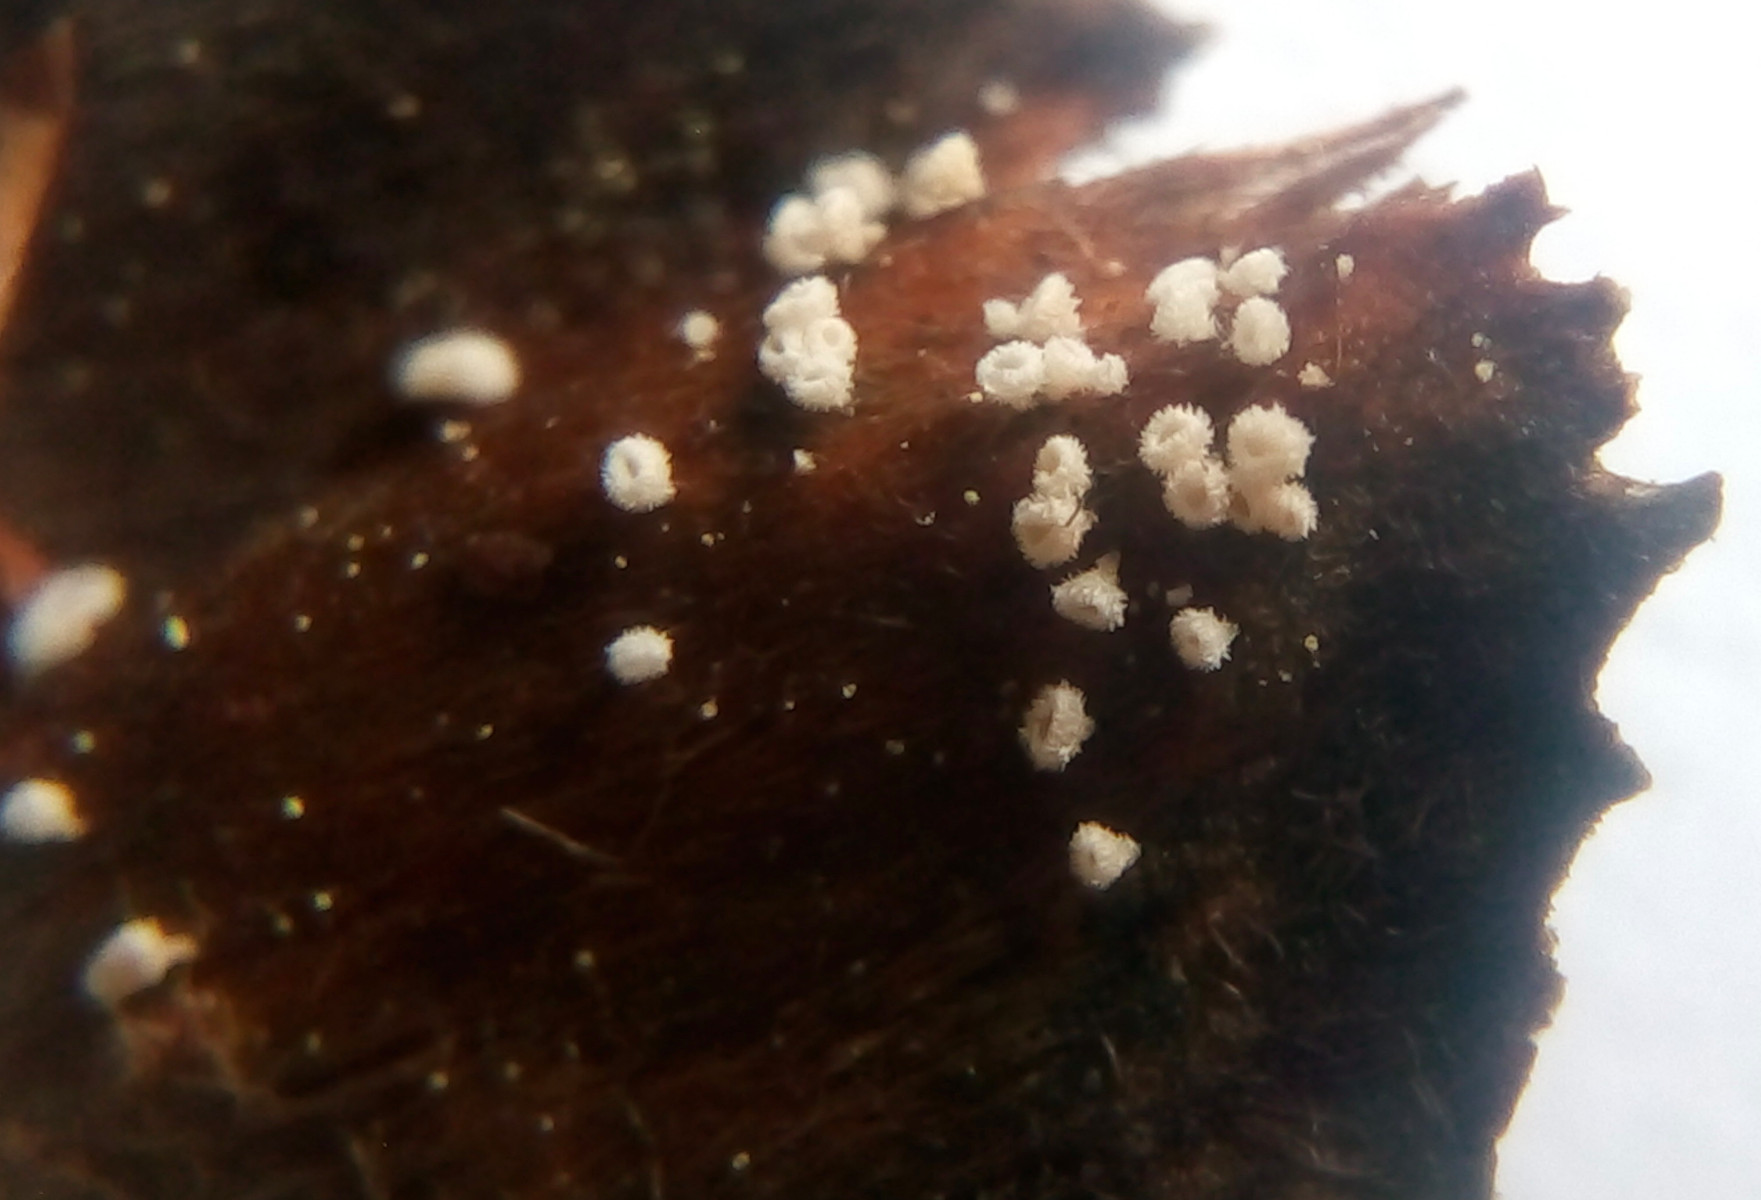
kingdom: Fungi
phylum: Ascomycota
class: Leotiomycetes
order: Helotiales
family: Lachnaceae
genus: Lachnum
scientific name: Lachnum virgineum
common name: jomfru-frynseskive
